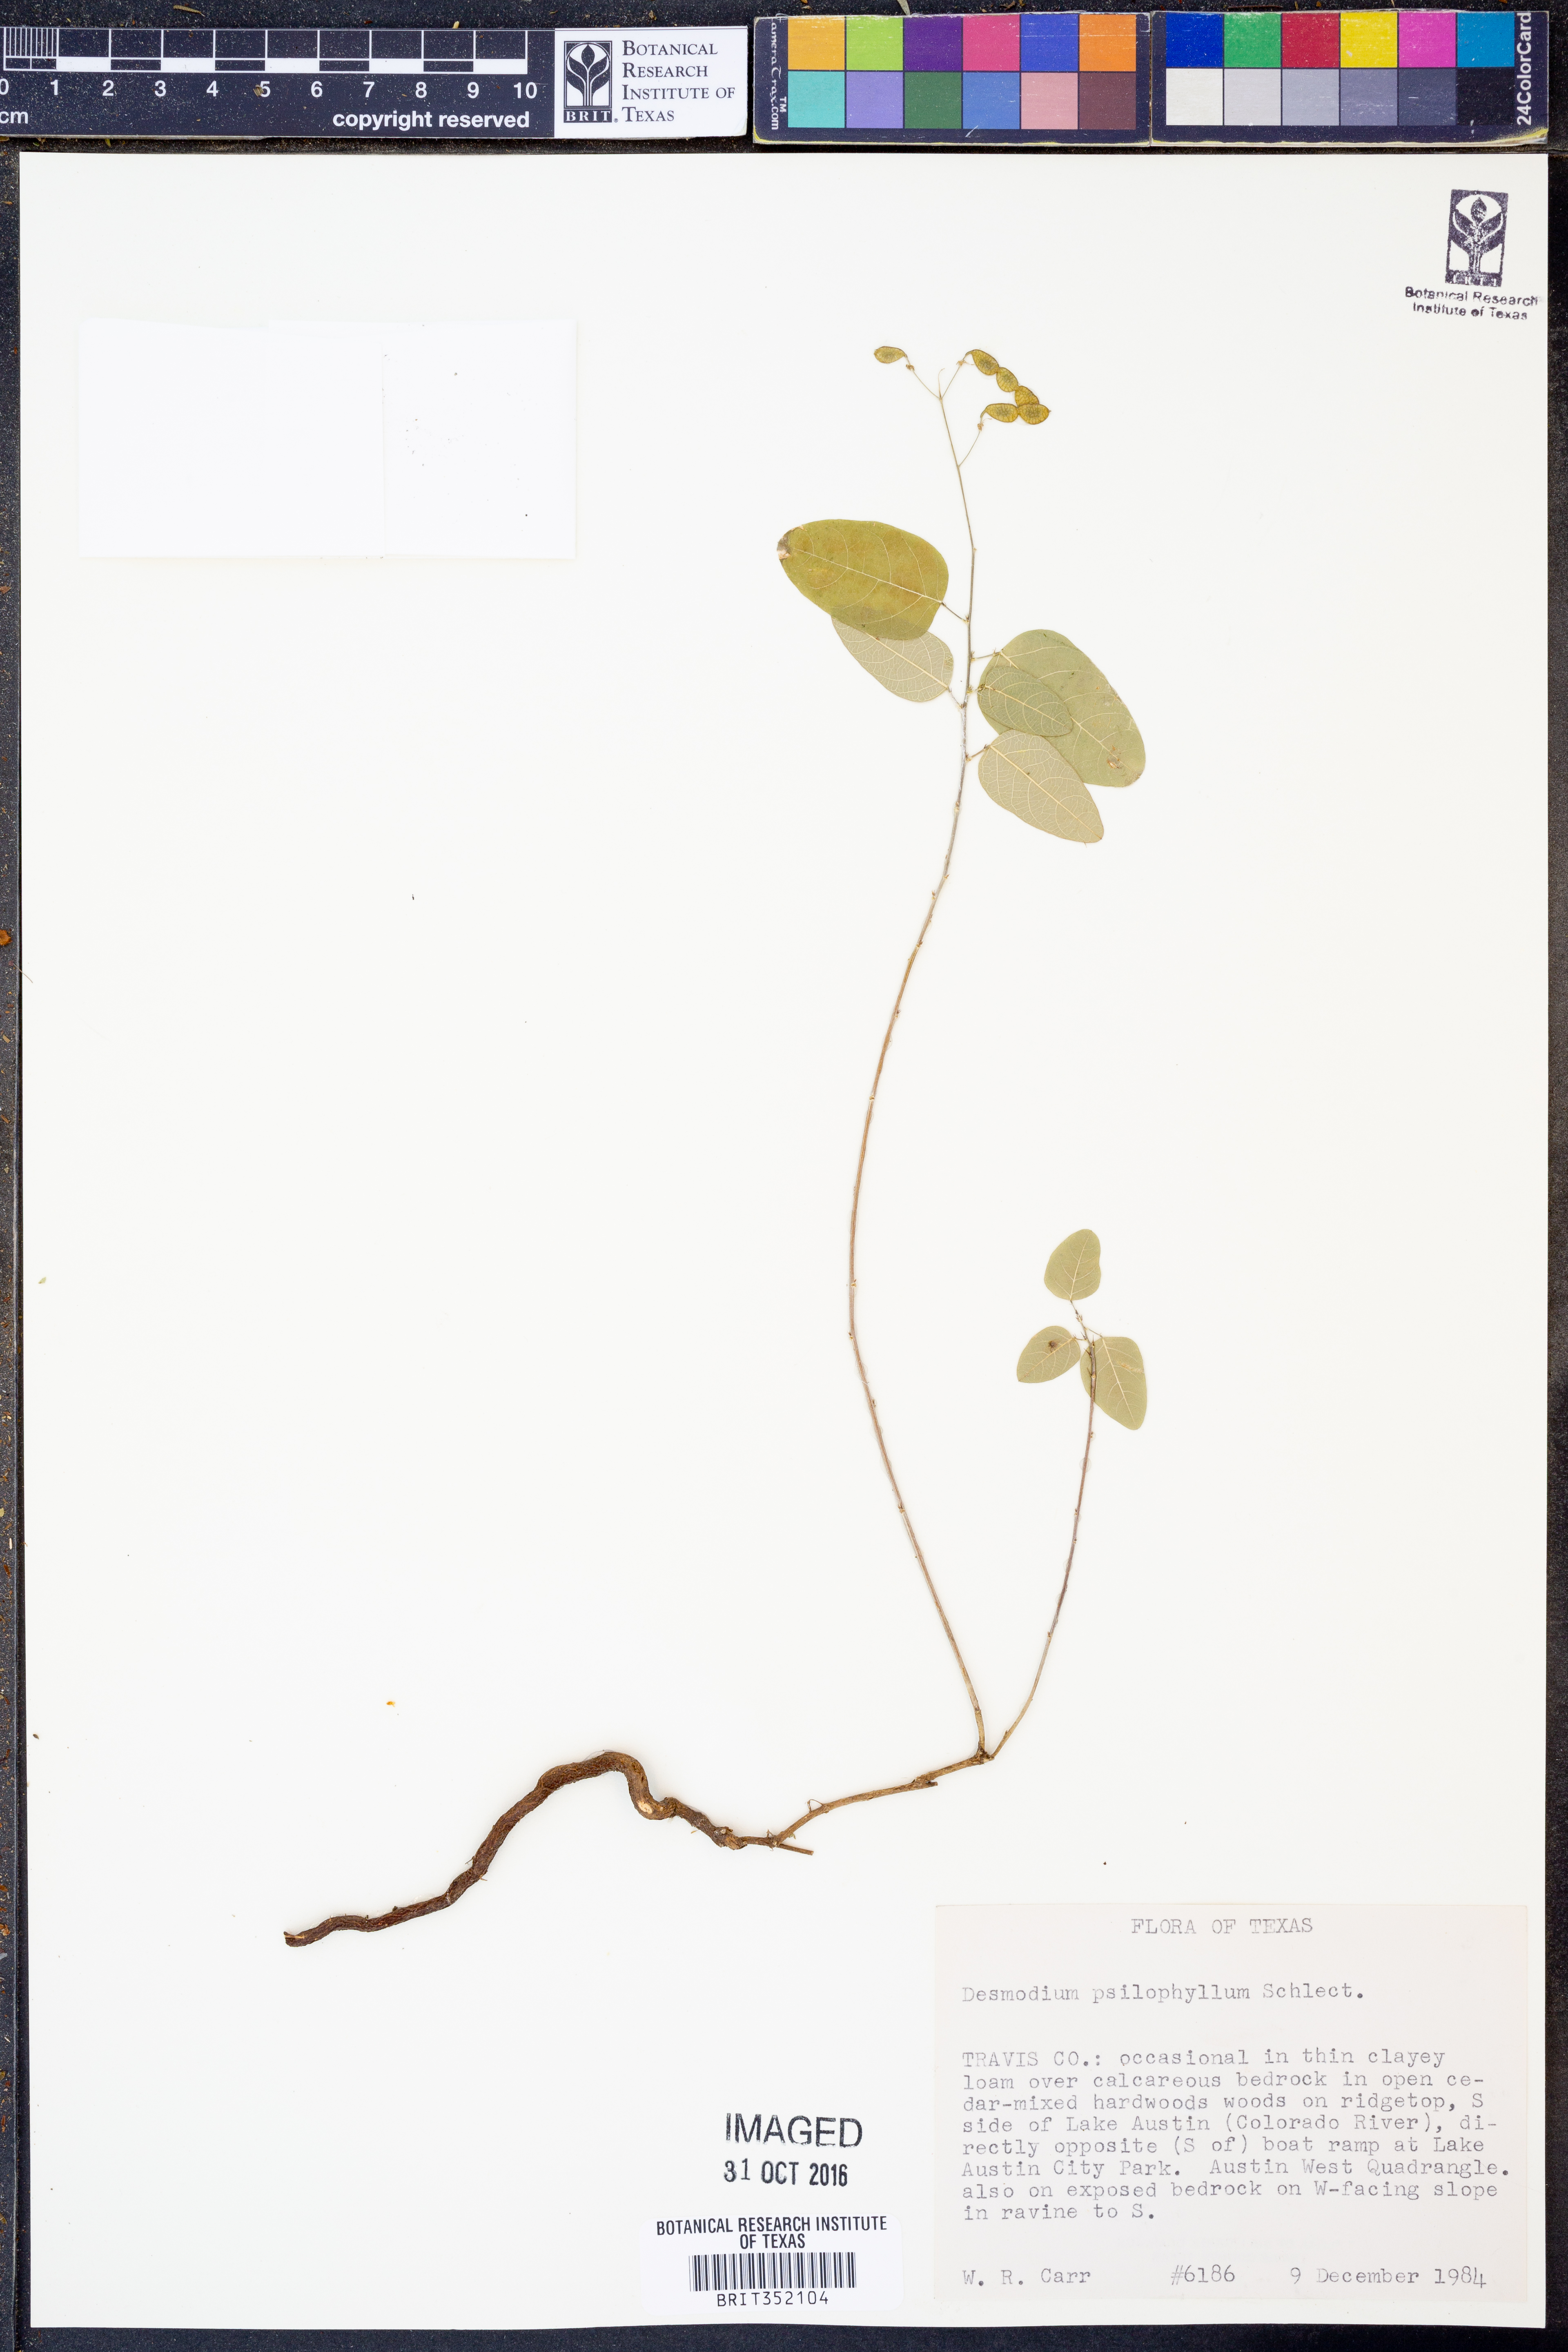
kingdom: Plantae
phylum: Tracheophyta
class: Magnoliopsida
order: Fabales
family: Fabaceae
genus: Desmodium
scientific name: Desmodium psilophyllum
